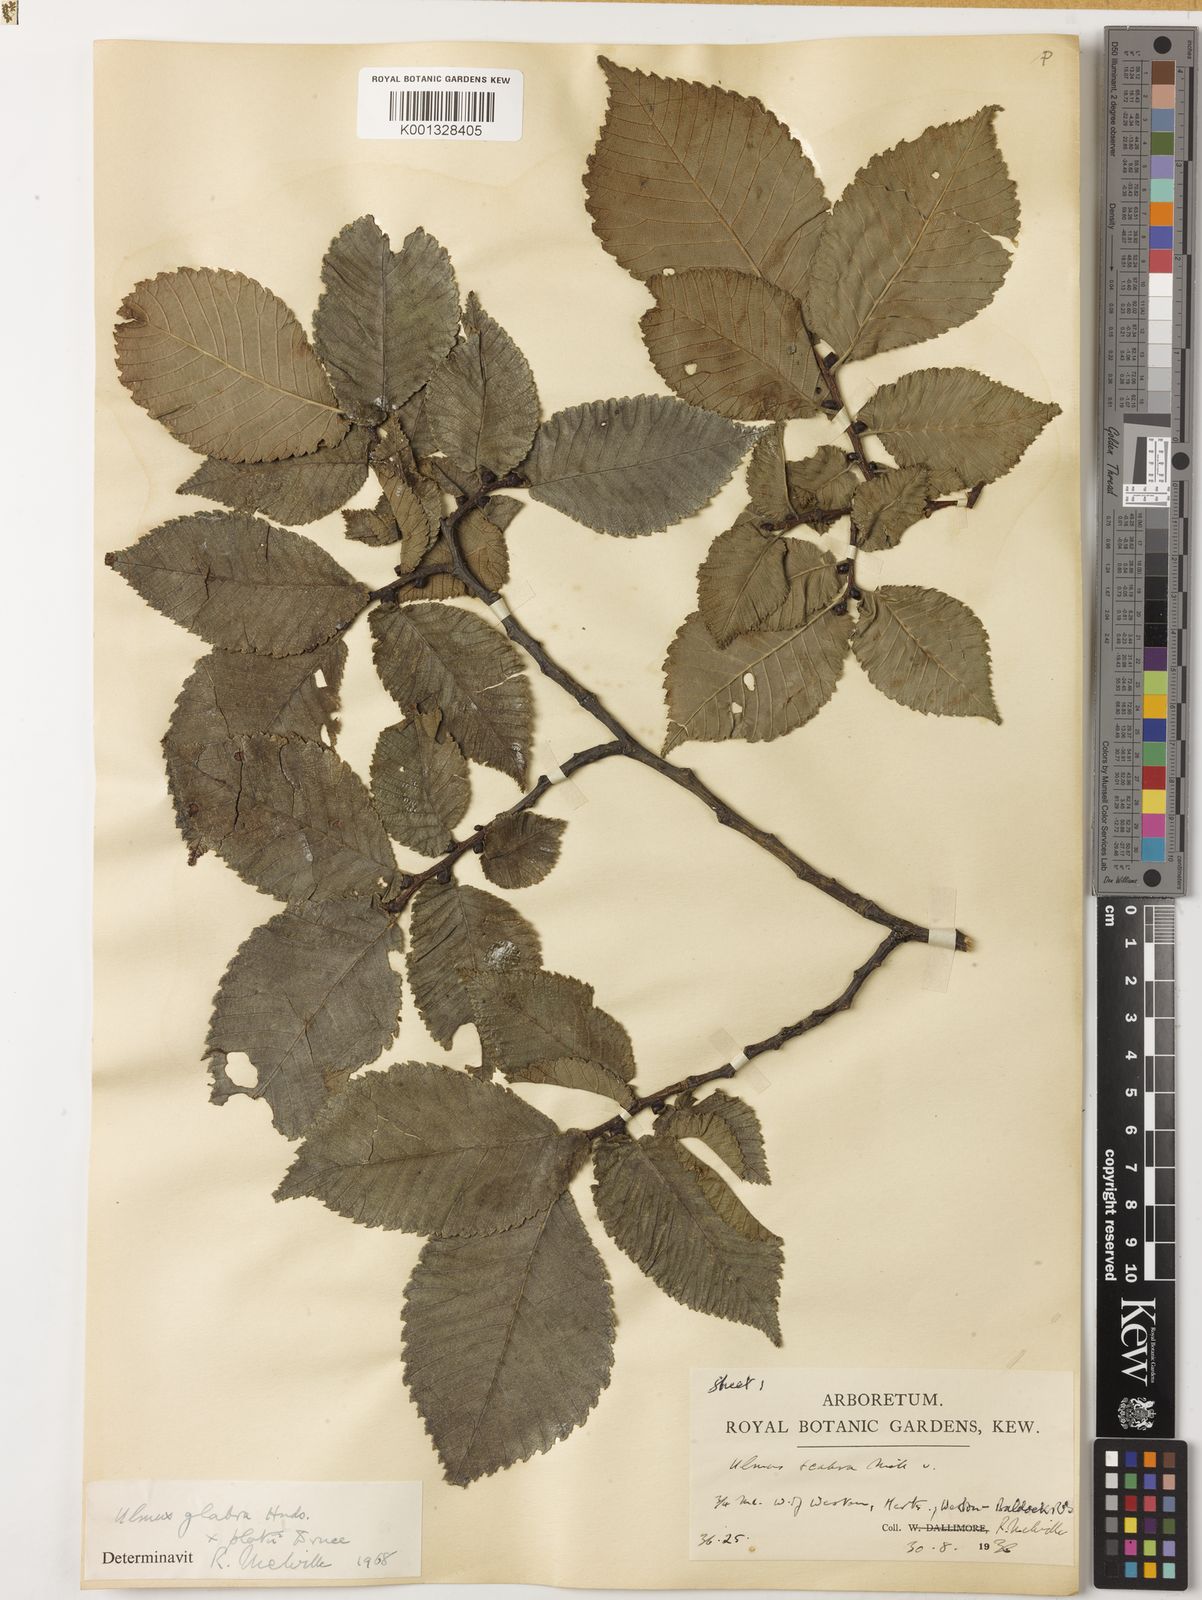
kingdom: Plantae
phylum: Tracheophyta
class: Magnoliopsida
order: Rosales
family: Ulmaceae
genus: Ulmus
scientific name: Ulmus glabra
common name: Wych elm
